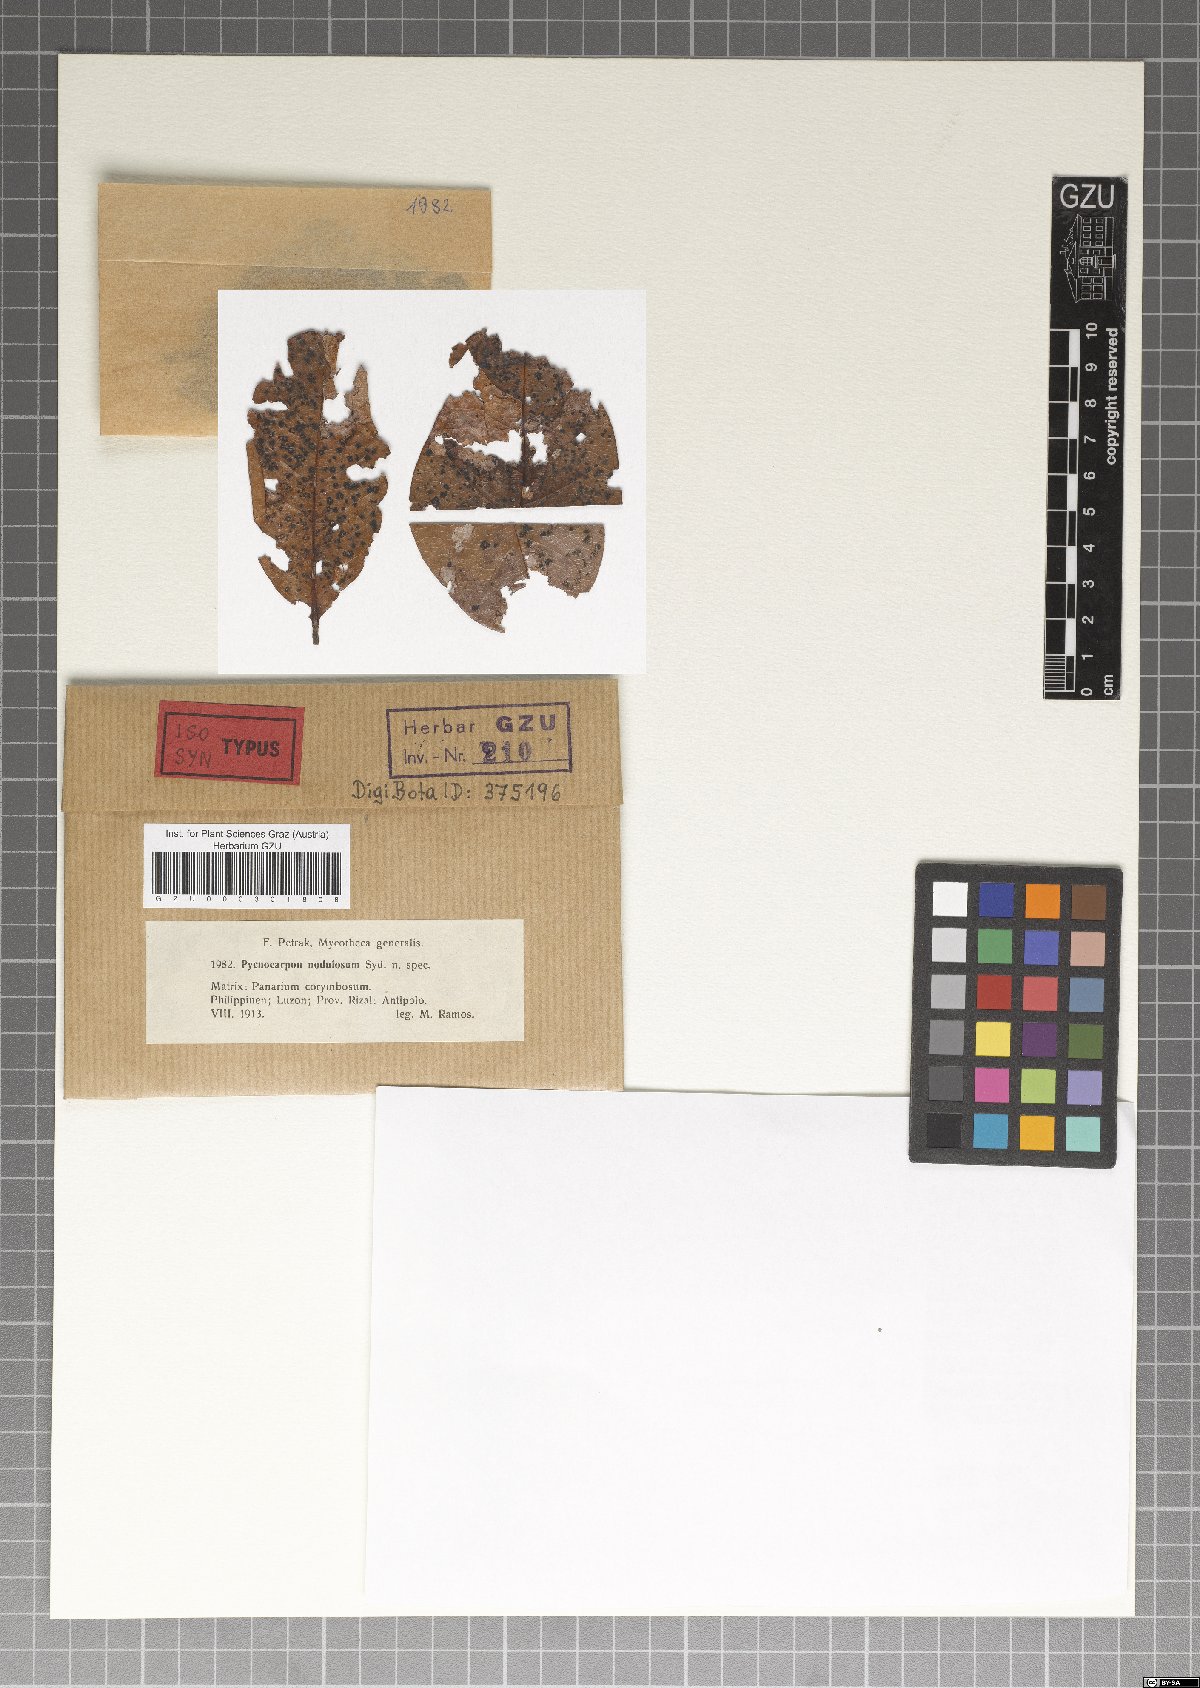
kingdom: Fungi
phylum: Ascomycota
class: Dothideomycetes
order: Asterinales
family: Asterinaceae
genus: Pycnocarpon
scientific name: Pycnocarpon nodulosum
